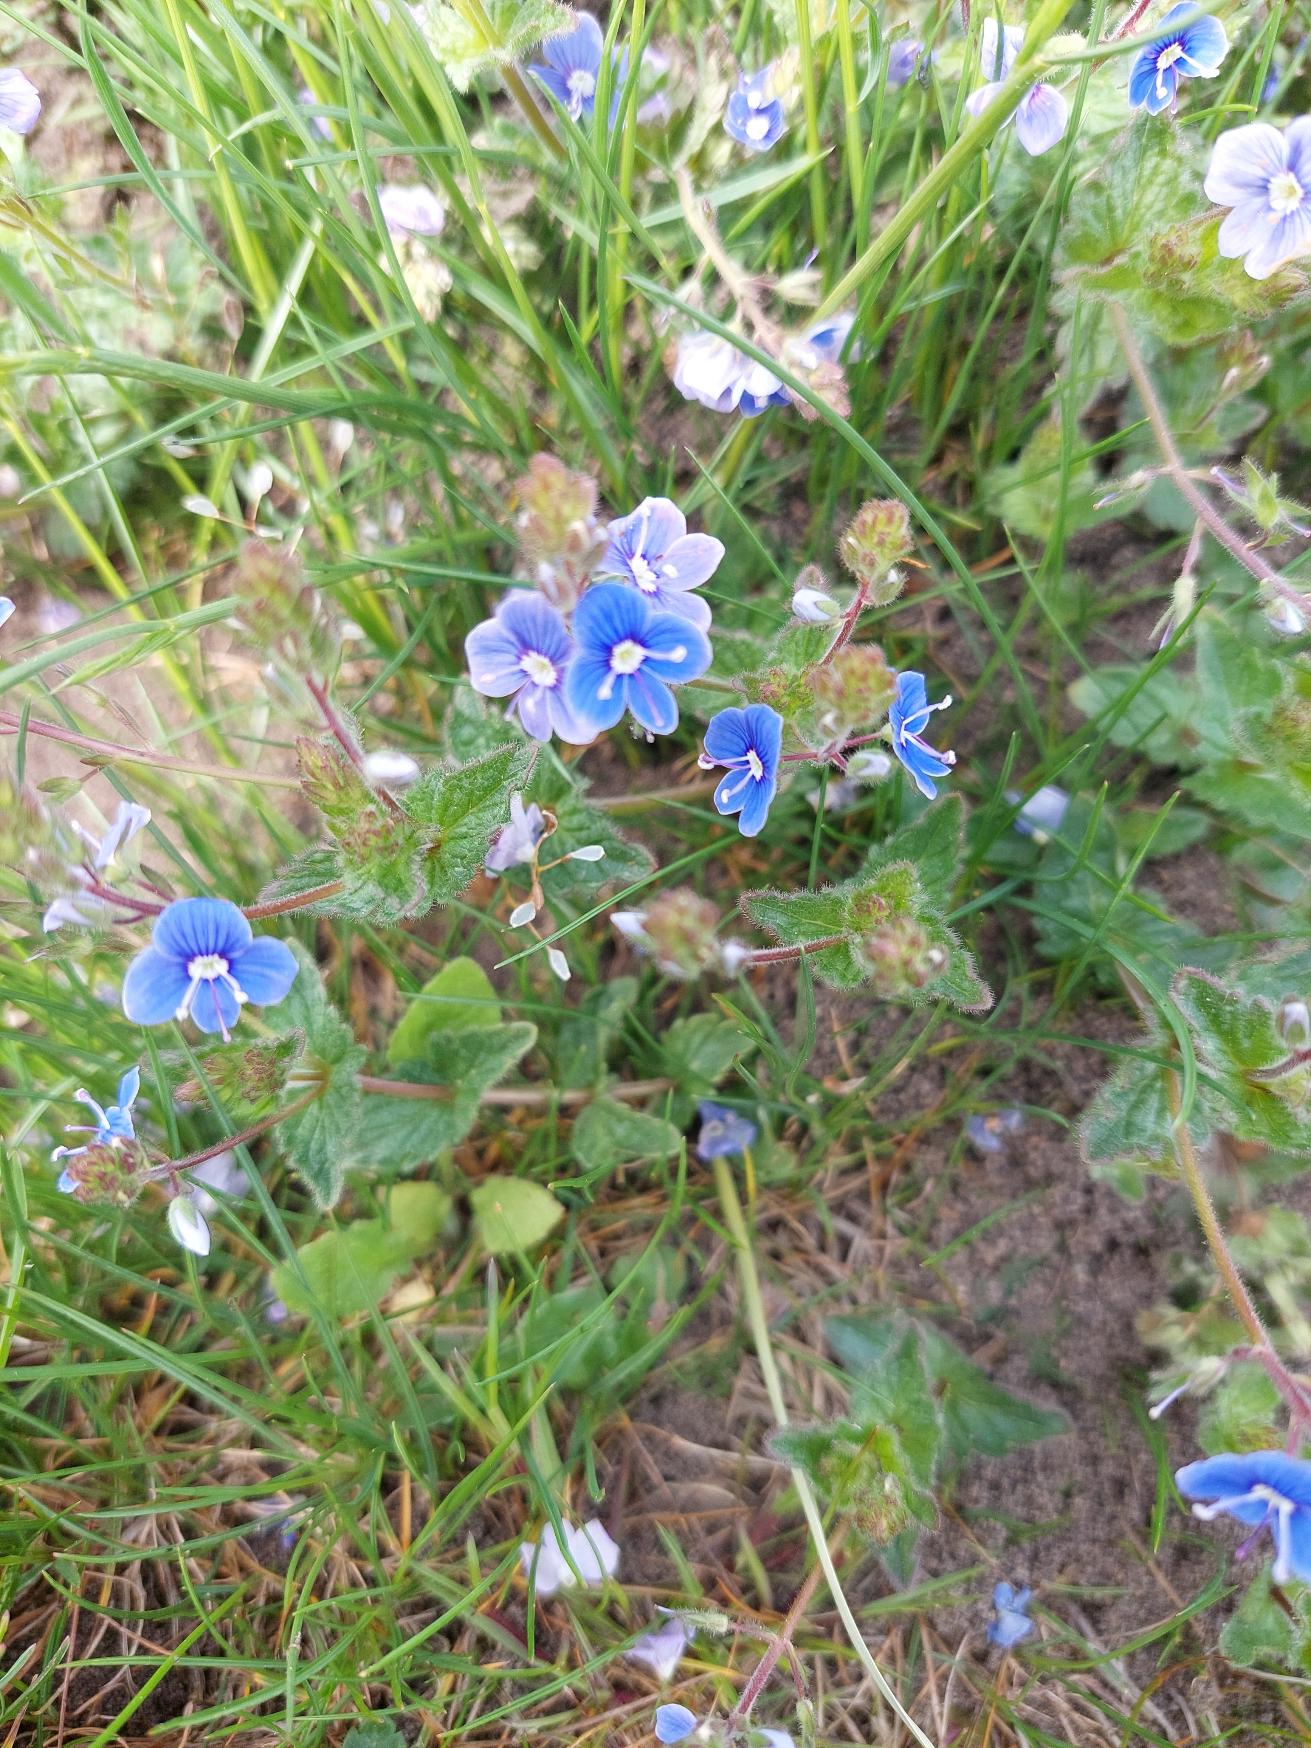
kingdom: Plantae
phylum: Tracheophyta
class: Magnoliopsida
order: Lamiales
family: Plantaginaceae
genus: Veronica
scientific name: Veronica chamaedrys
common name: Tveskægget ærenpris
